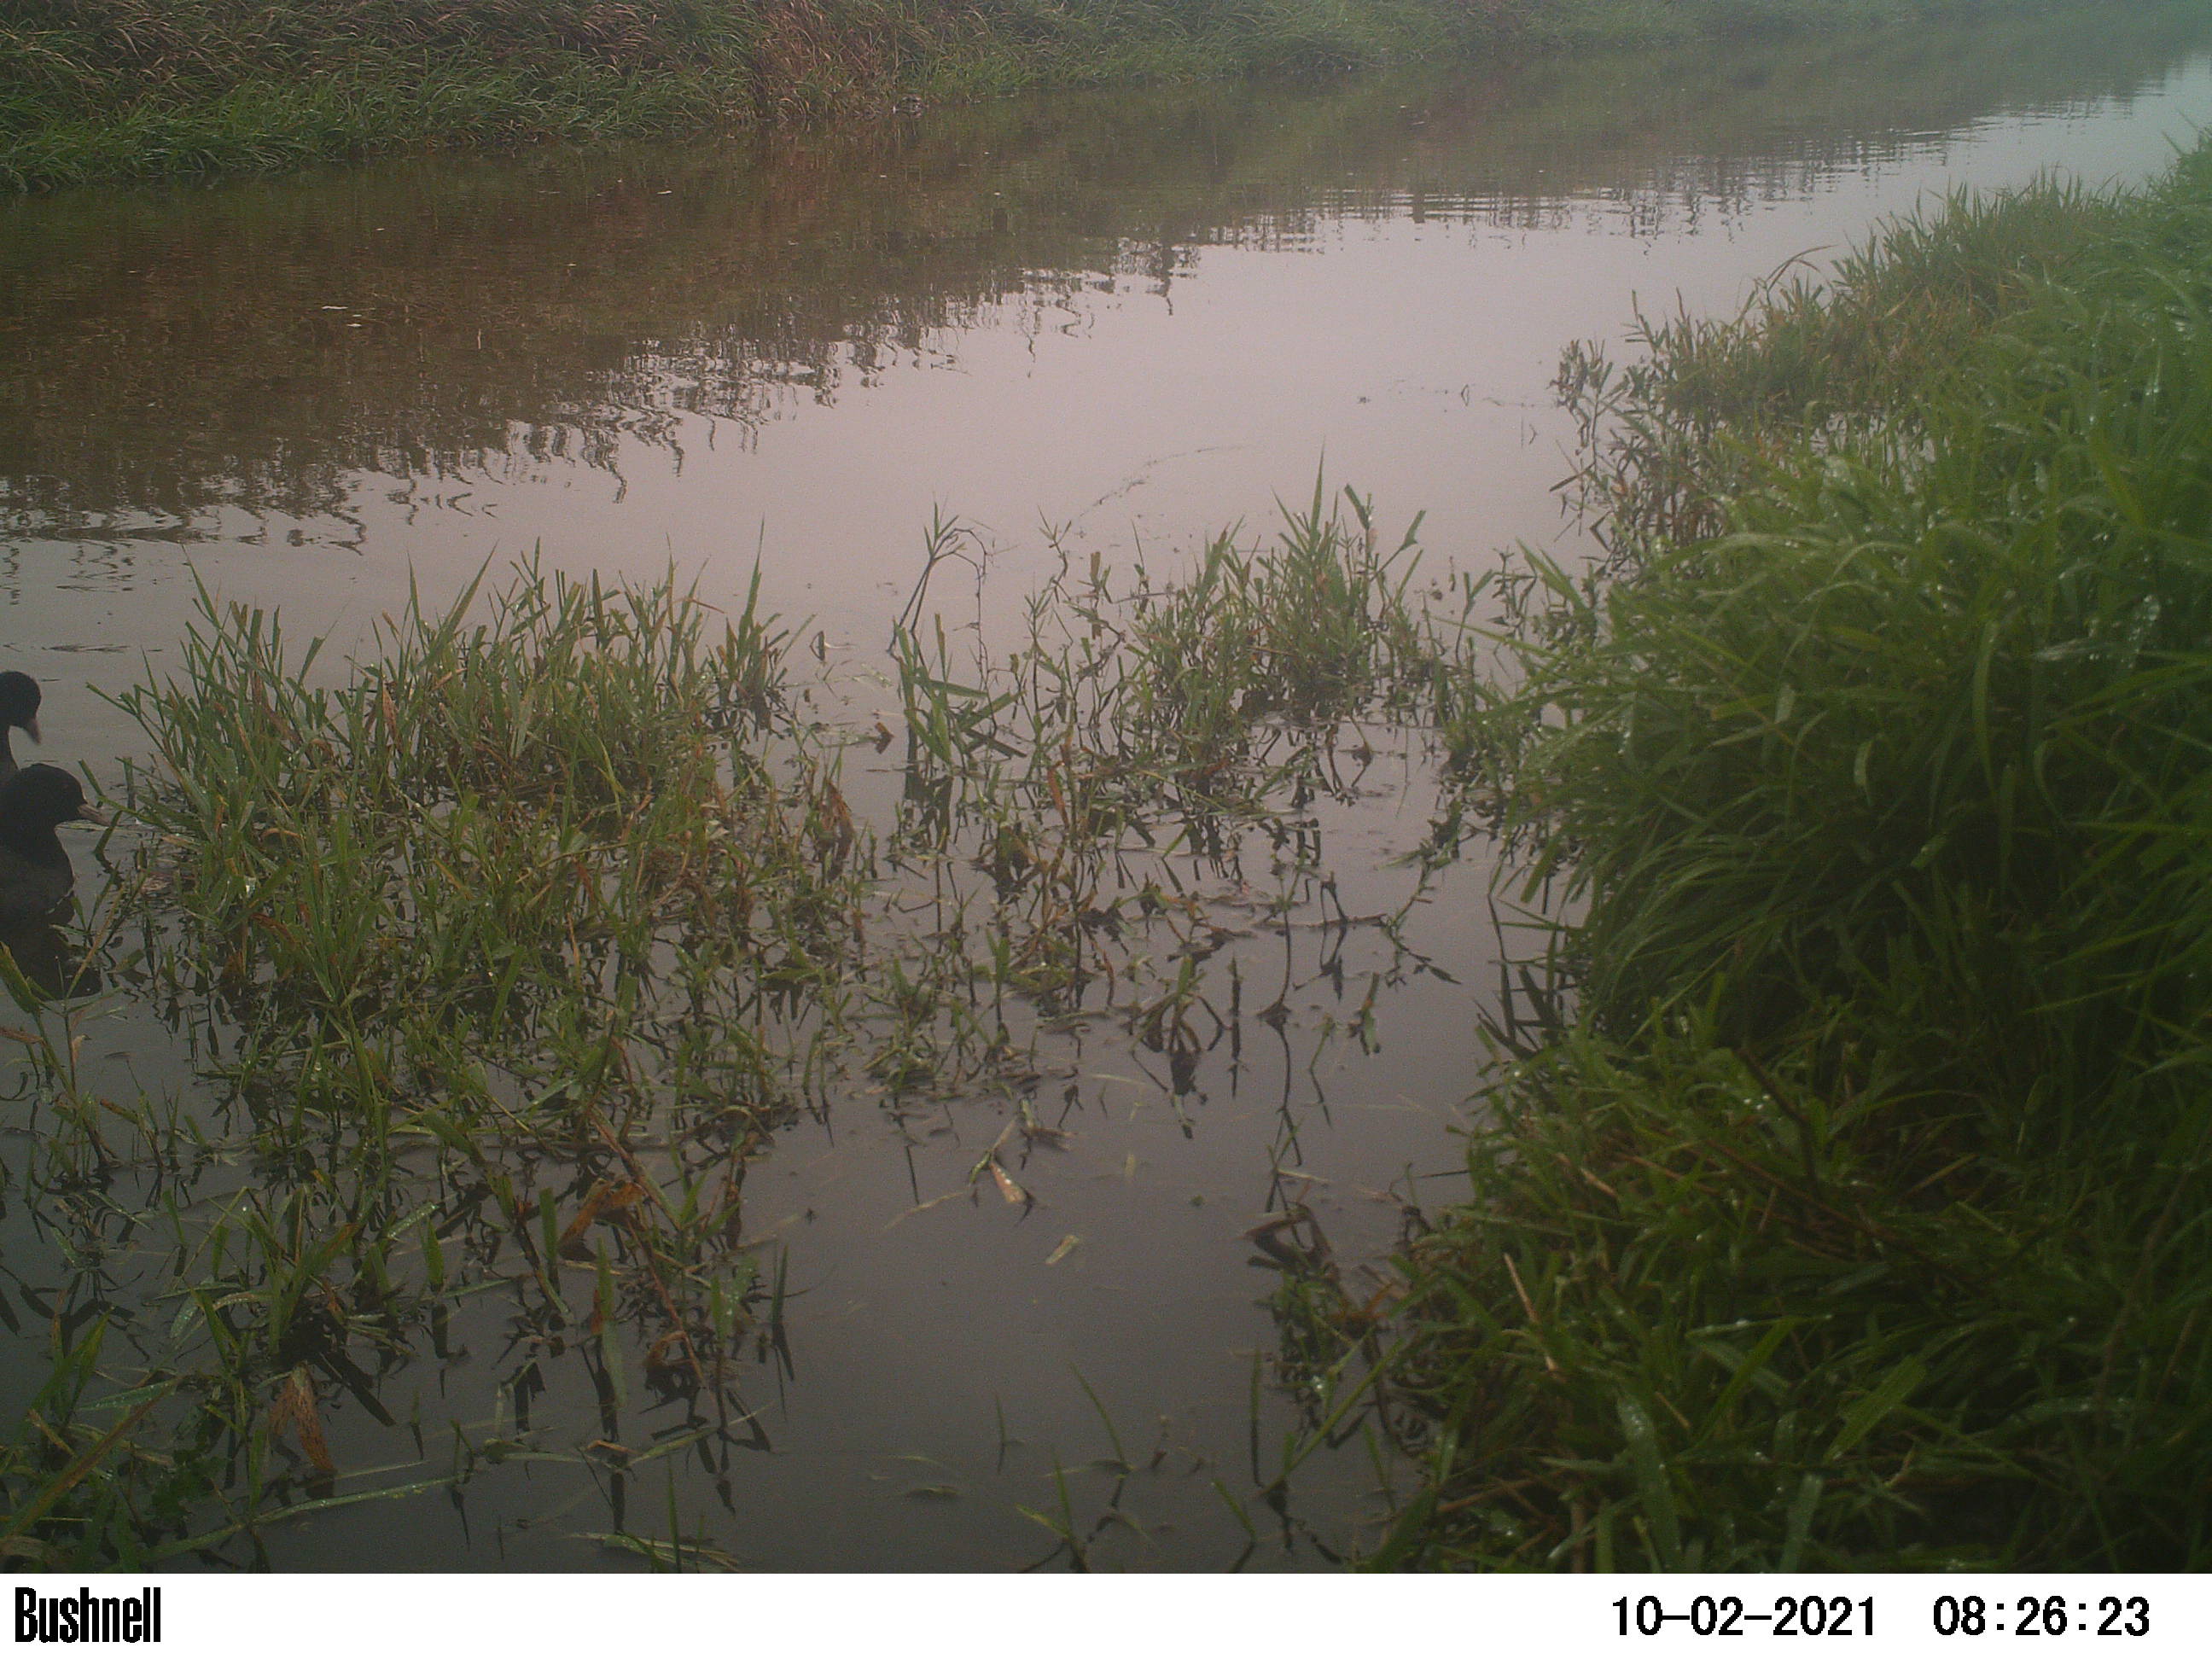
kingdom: Animalia
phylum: Chordata
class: Aves
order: Gruiformes
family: Rallidae
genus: Fulica
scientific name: Fulica atra
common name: Eurasian coot
